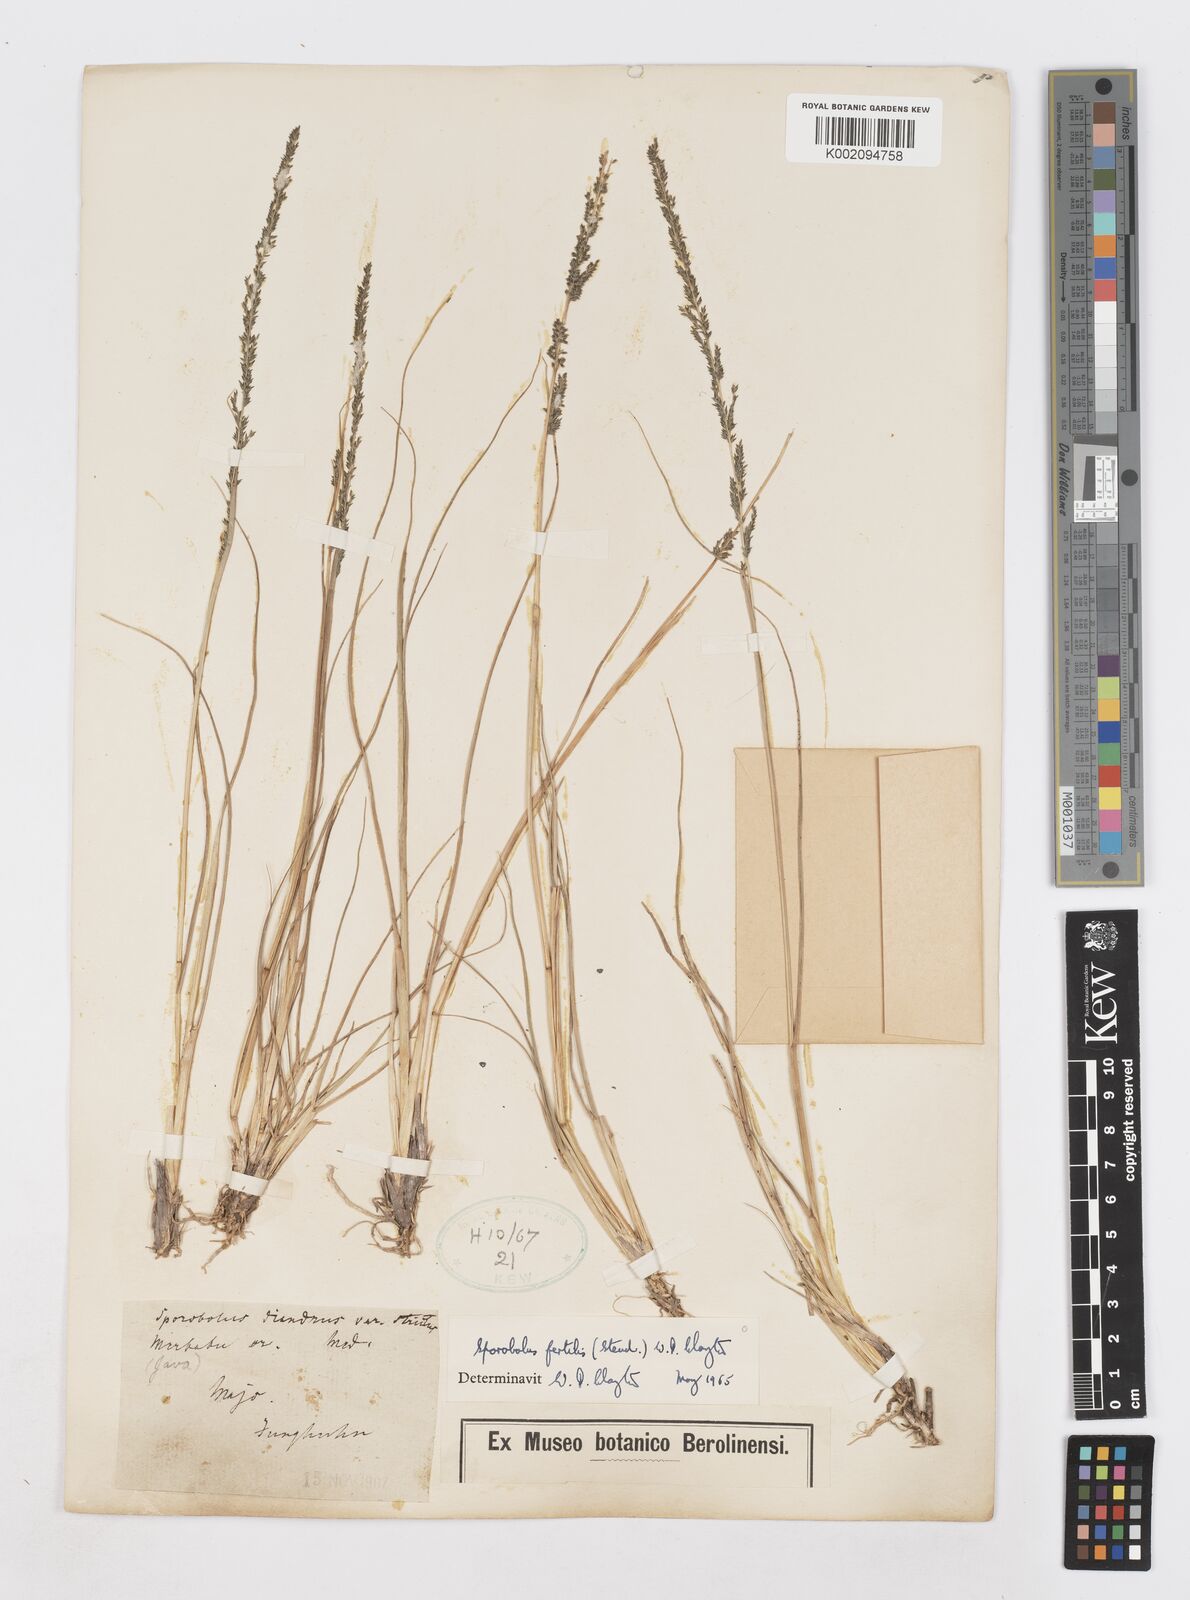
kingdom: Plantae
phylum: Tracheophyta
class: Liliopsida
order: Poales
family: Poaceae
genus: Sporobolus
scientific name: Sporobolus fertilis
